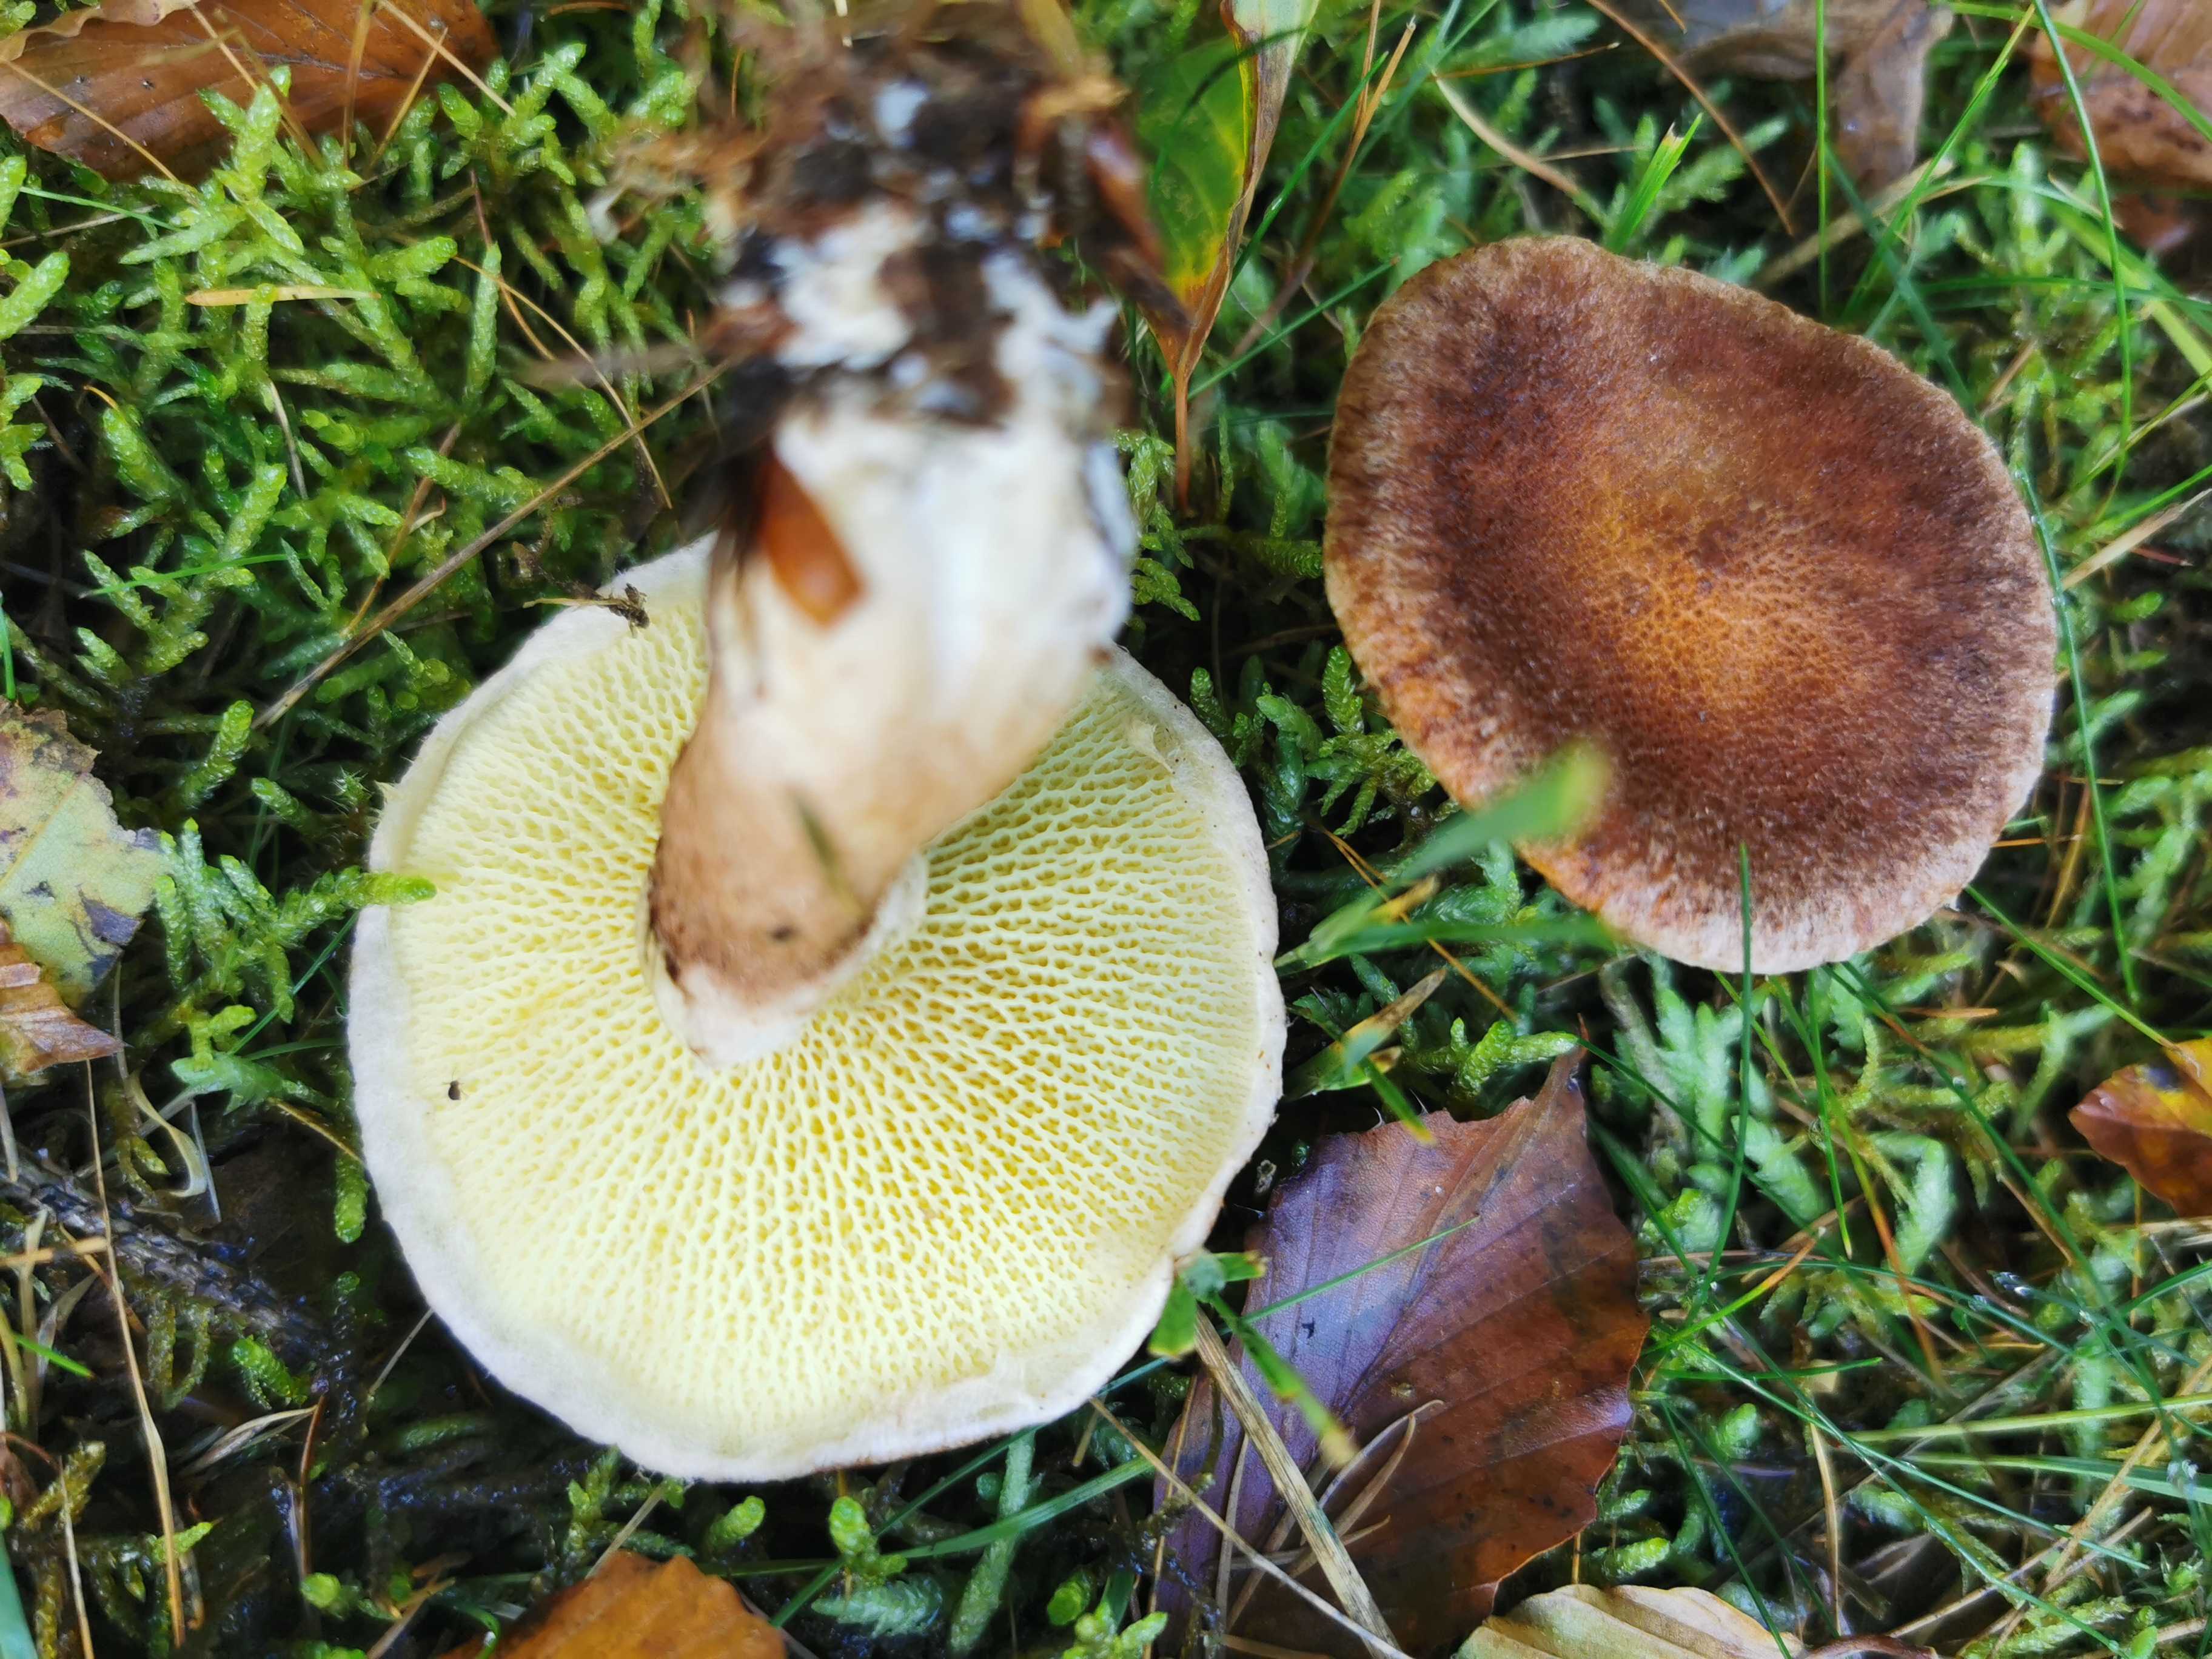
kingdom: Fungi
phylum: Basidiomycota
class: Agaricomycetes
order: Boletales
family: Suillaceae
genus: Suillus
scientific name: Suillus cavipes
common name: hulstokket slimrørhat
